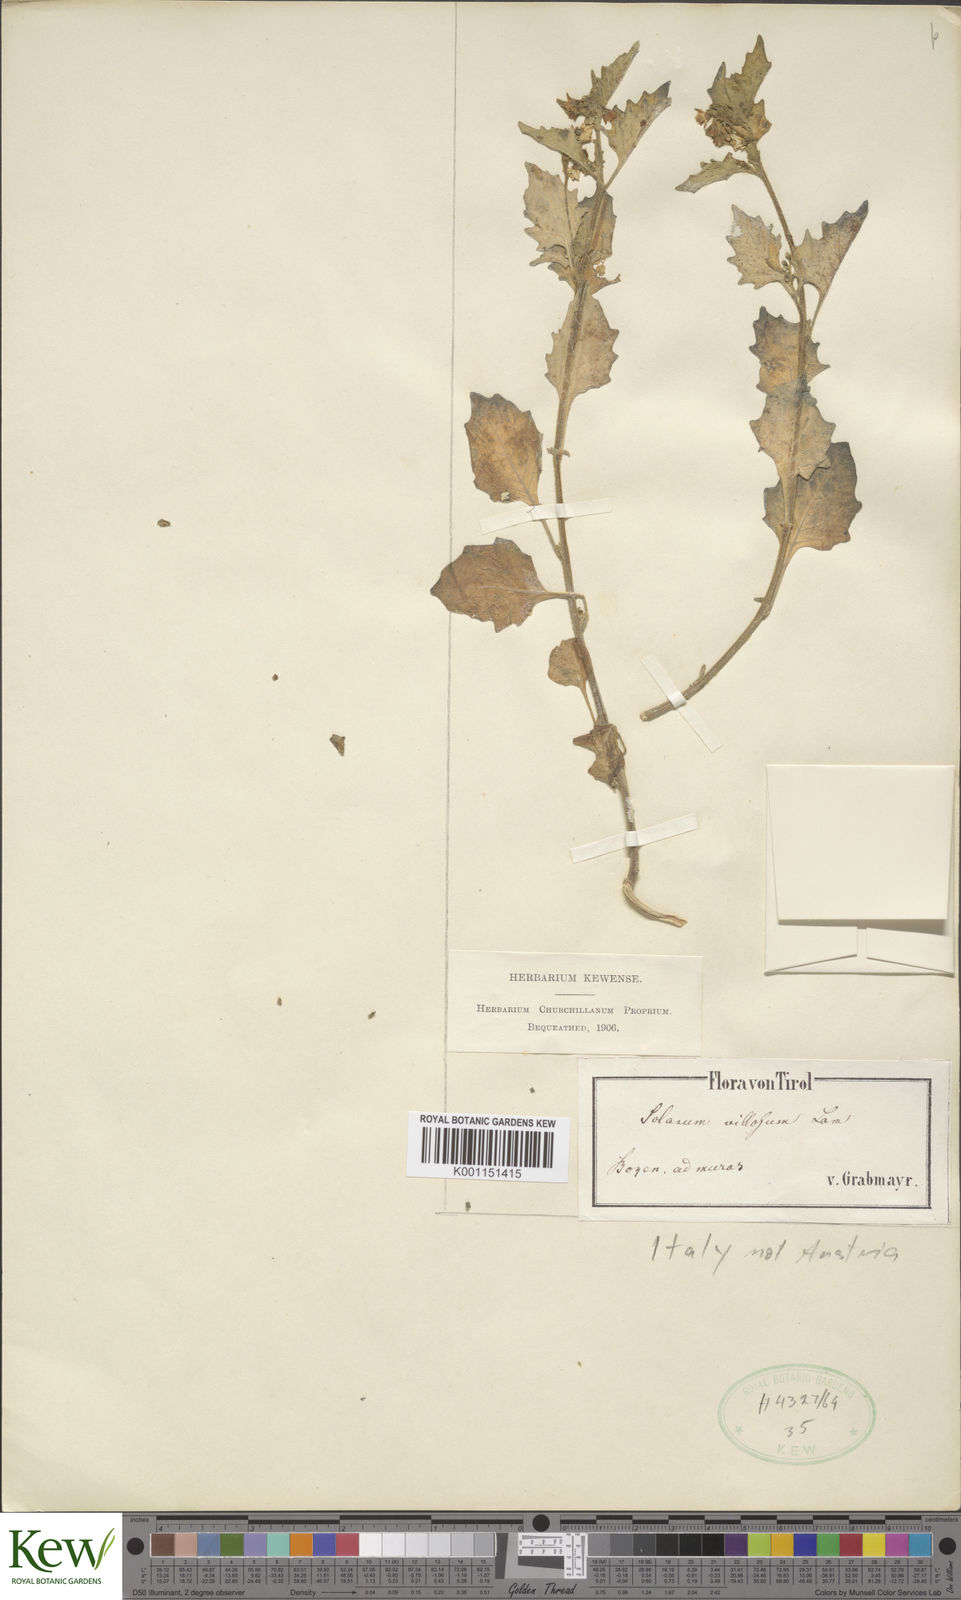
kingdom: Plantae
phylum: Tracheophyta
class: Magnoliopsida
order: Solanales
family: Solanaceae
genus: Solanum
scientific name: Solanum villosum
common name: Red nightshade
